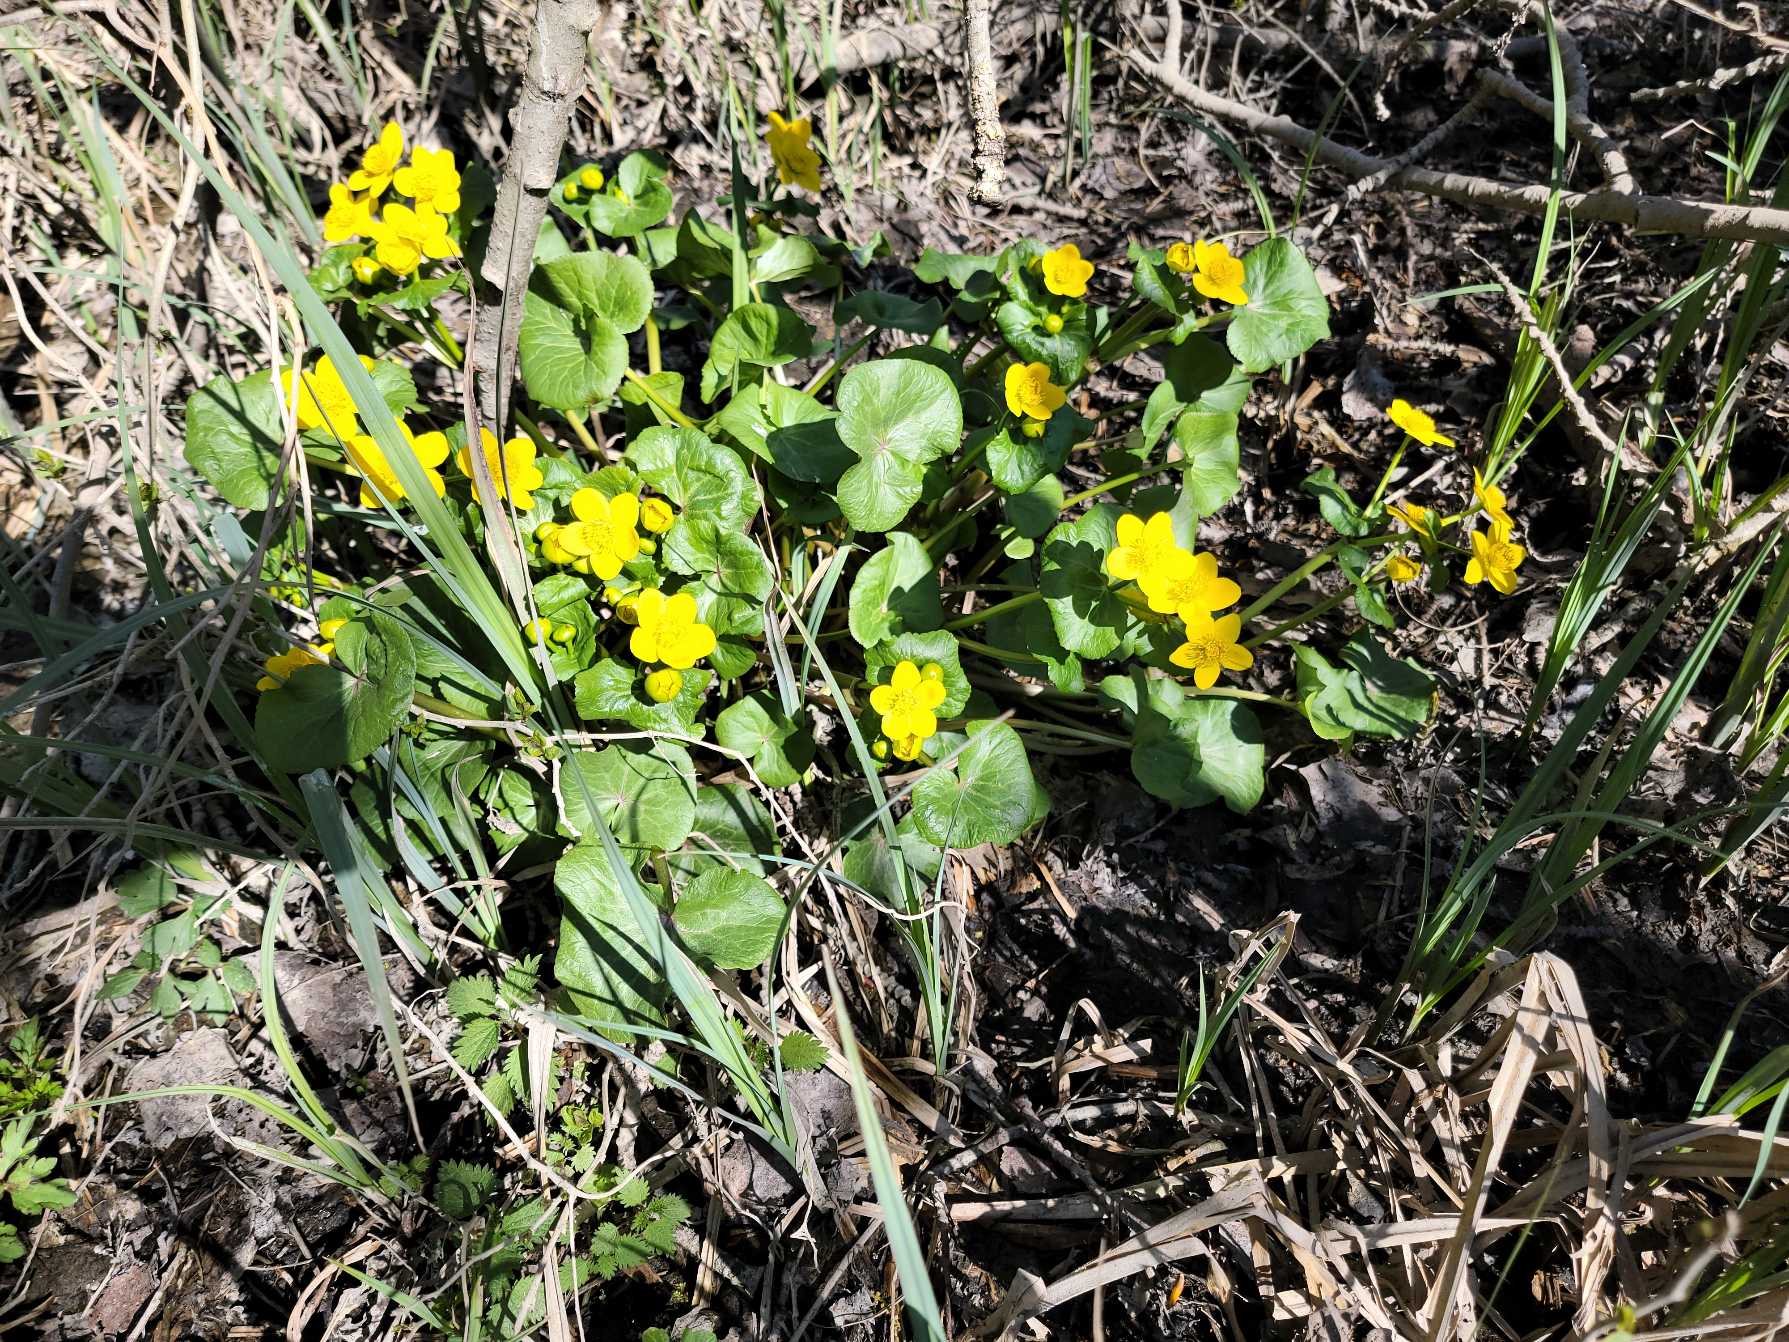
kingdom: Plantae
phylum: Tracheophyta
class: Magnoliopsida
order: Ranunculales
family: Ranunculaceae
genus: Caltha
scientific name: Caltha palustris
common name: Eng-kabbeleje
